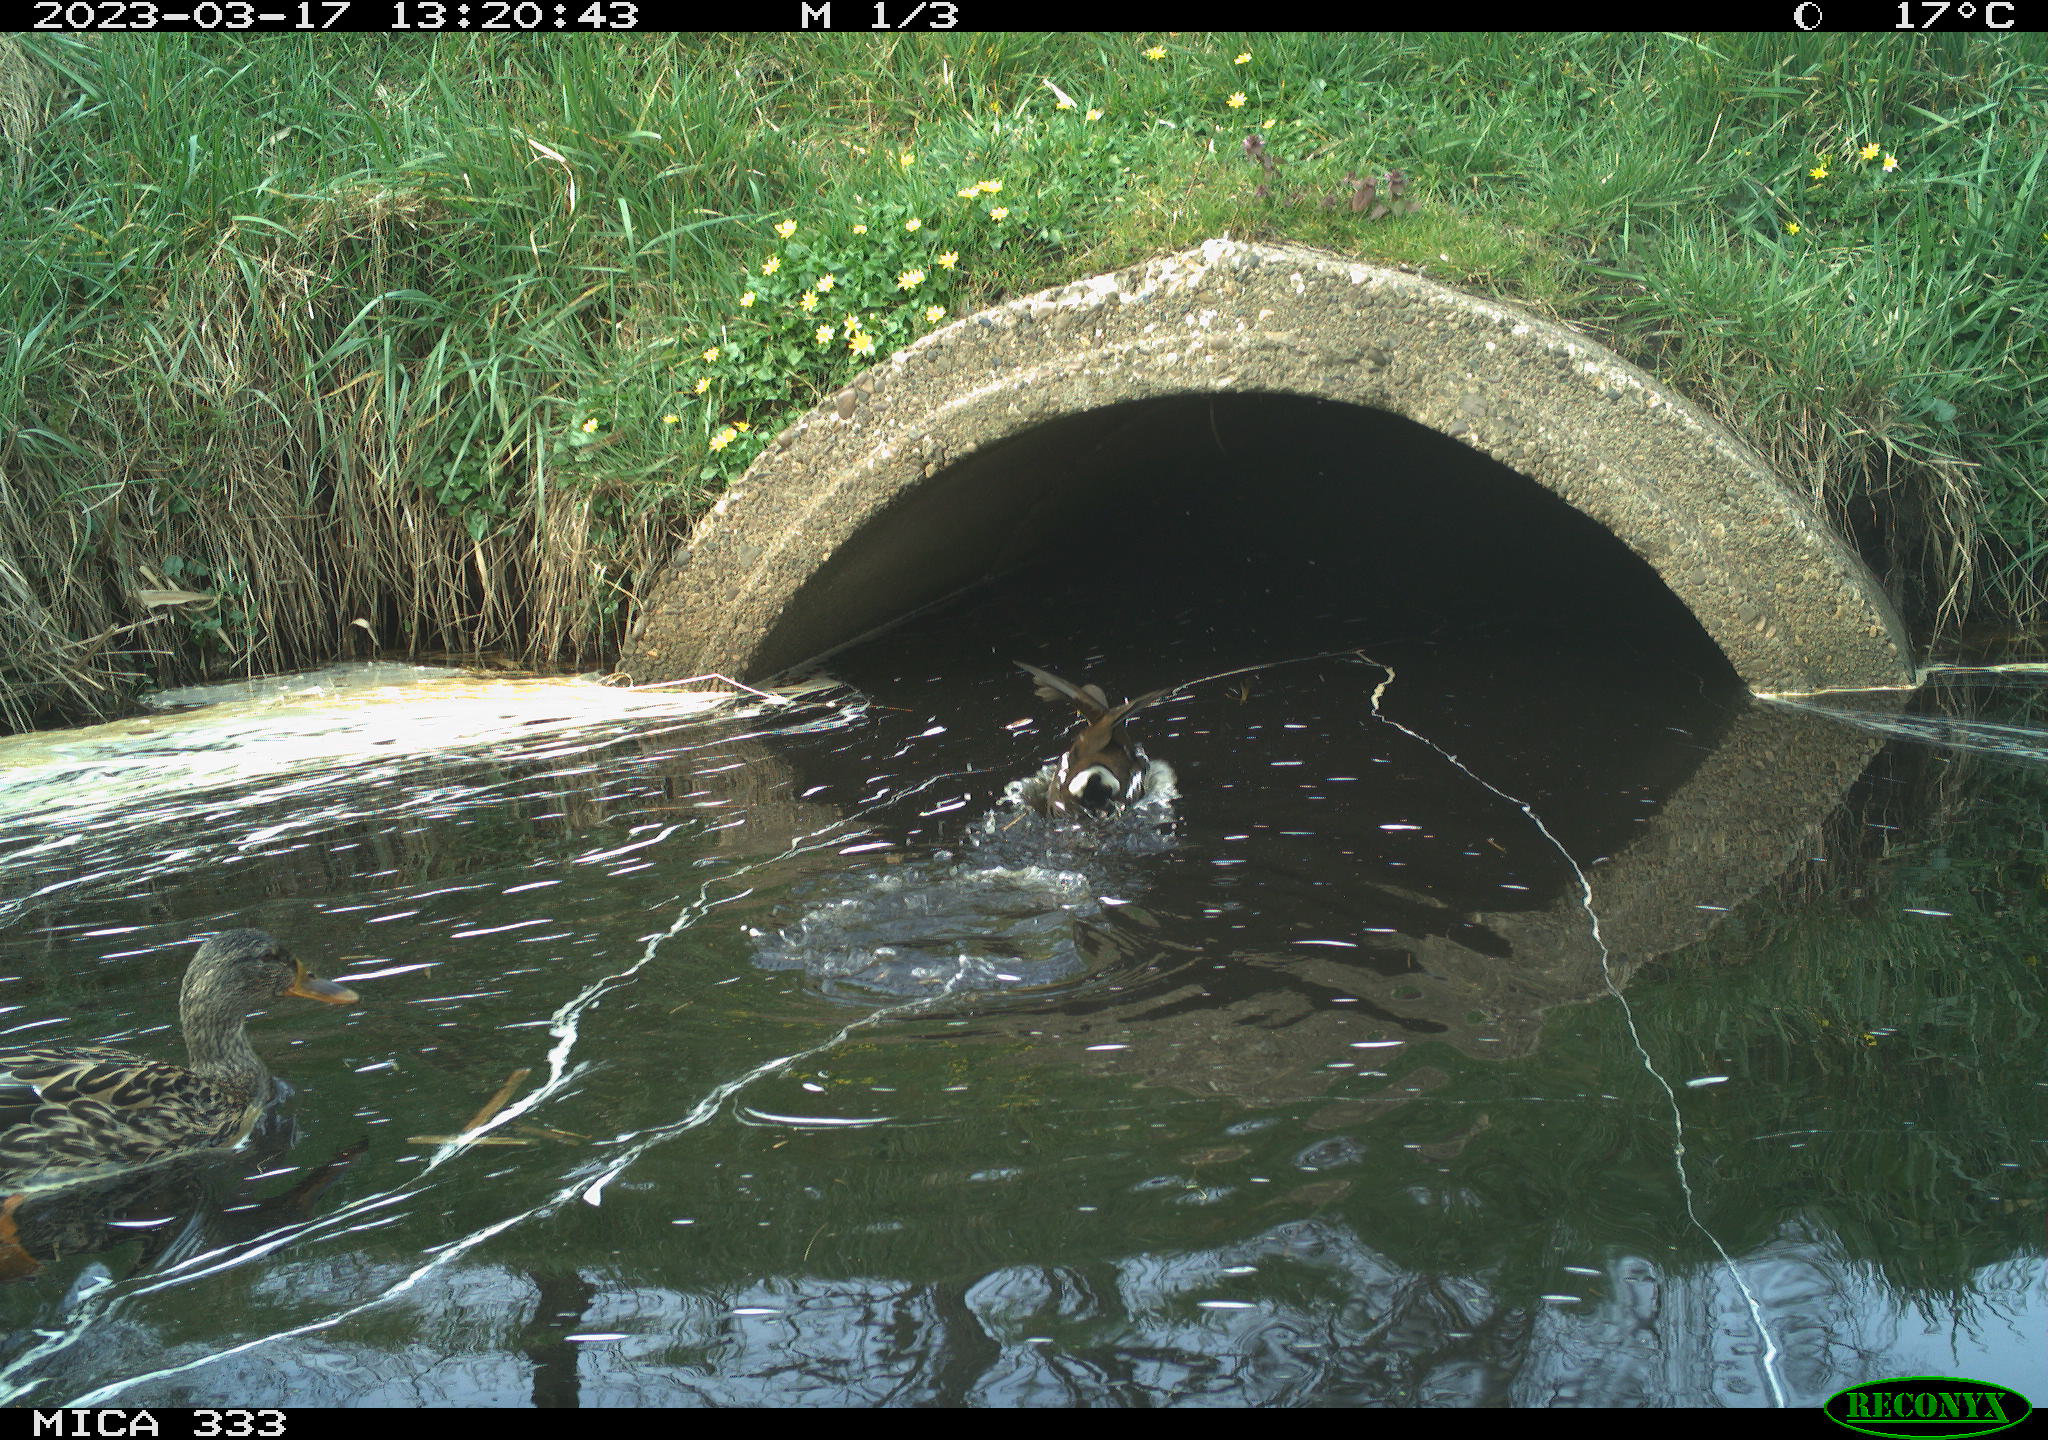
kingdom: Animalia
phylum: Chordata
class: Aves
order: Anseriformes
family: Anatidae
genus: Anas
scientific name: Anas
